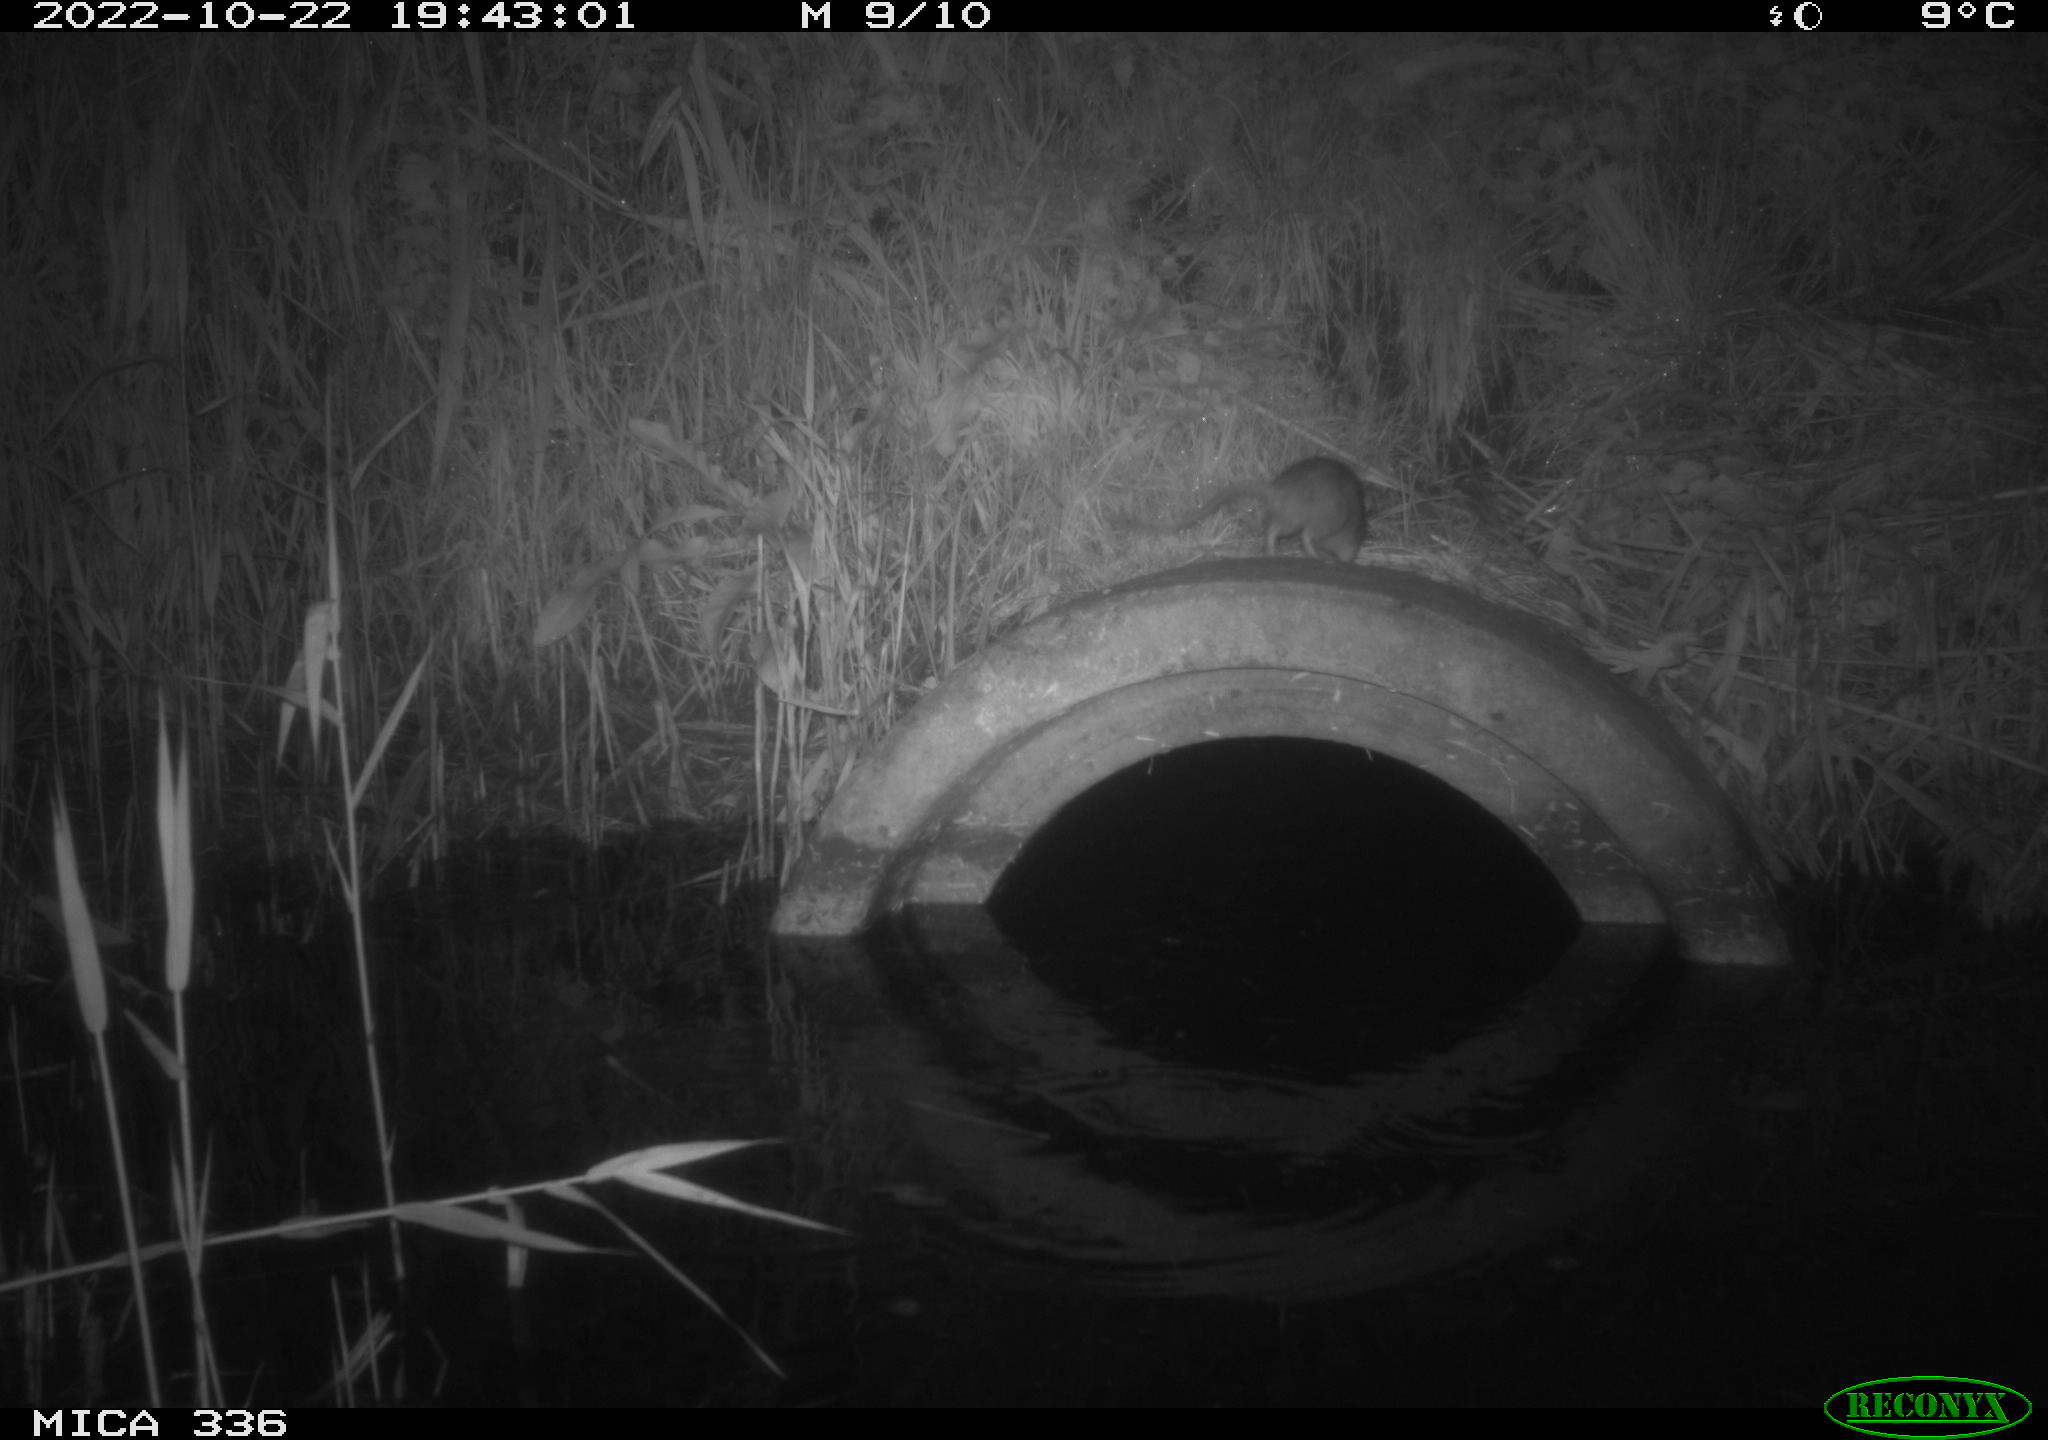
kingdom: Animalia
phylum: Chordata
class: Mammalia
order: Rodentia
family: Muridae
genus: Rattus
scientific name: Rattus norvegicus
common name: Brown rat
